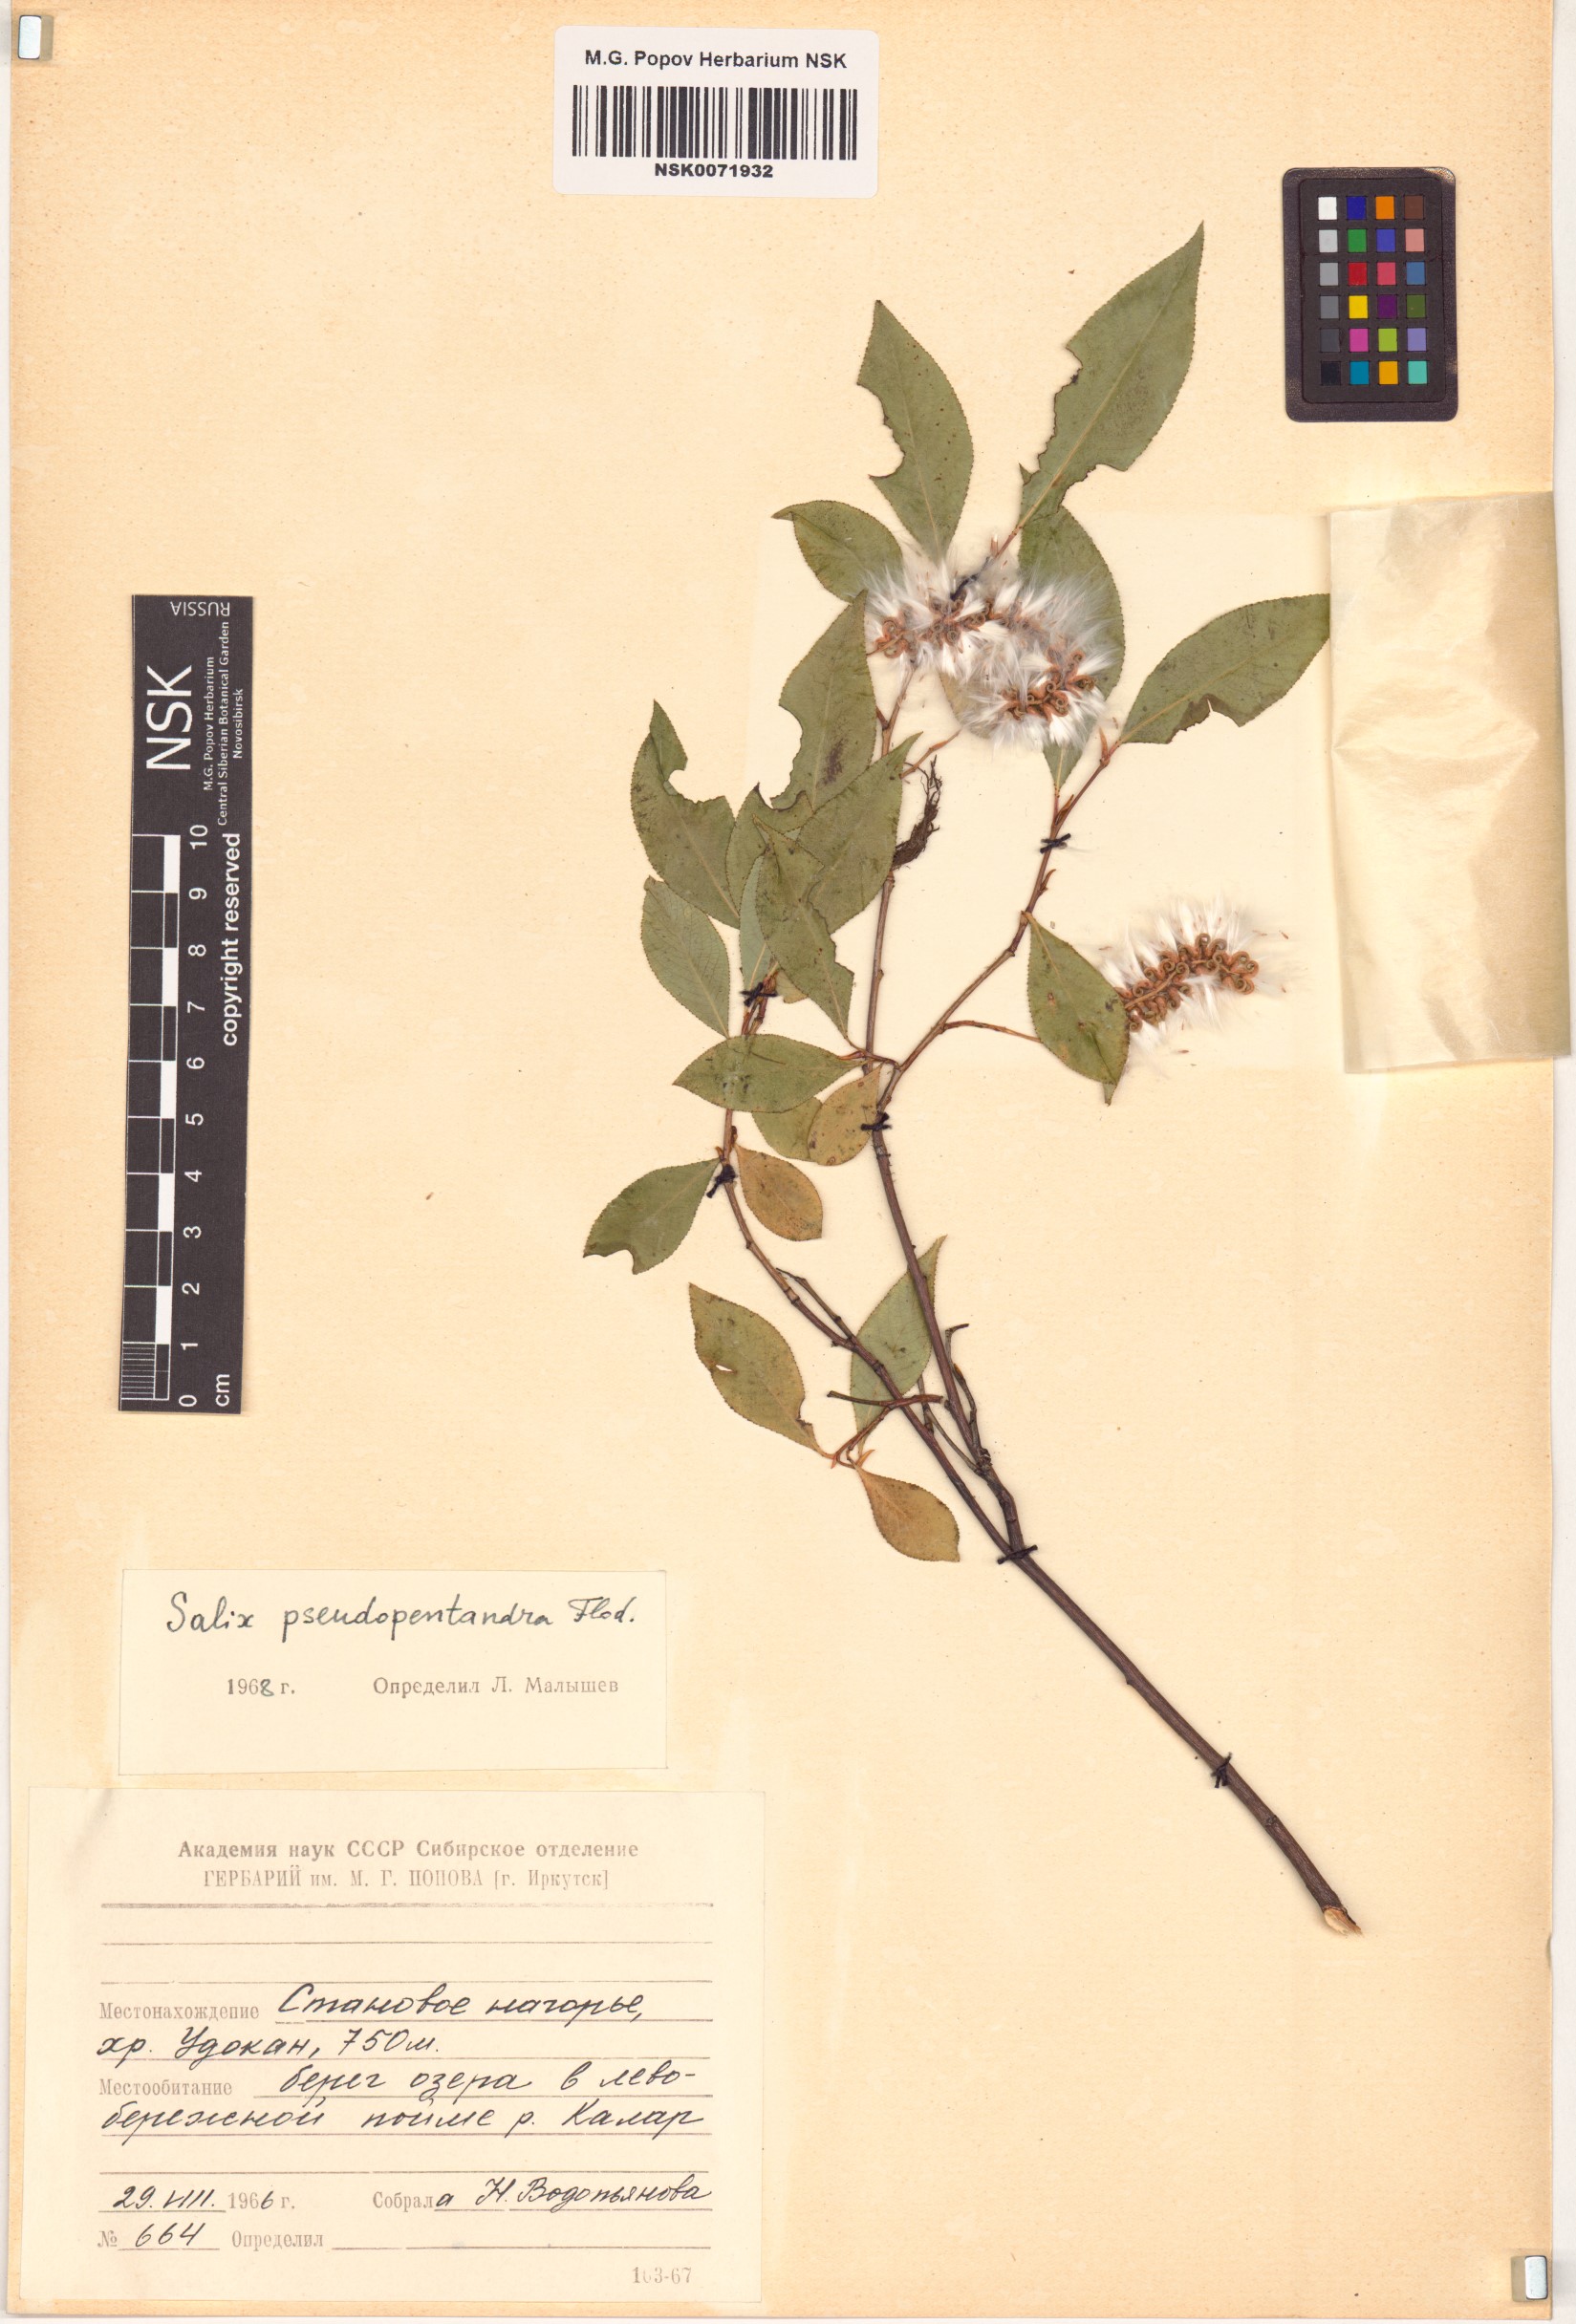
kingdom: Plantae
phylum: Tracheophyta
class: Magnoliopsida
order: Malpighiales
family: Salicaceae
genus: Salix
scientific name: Salix pseudopentandra
